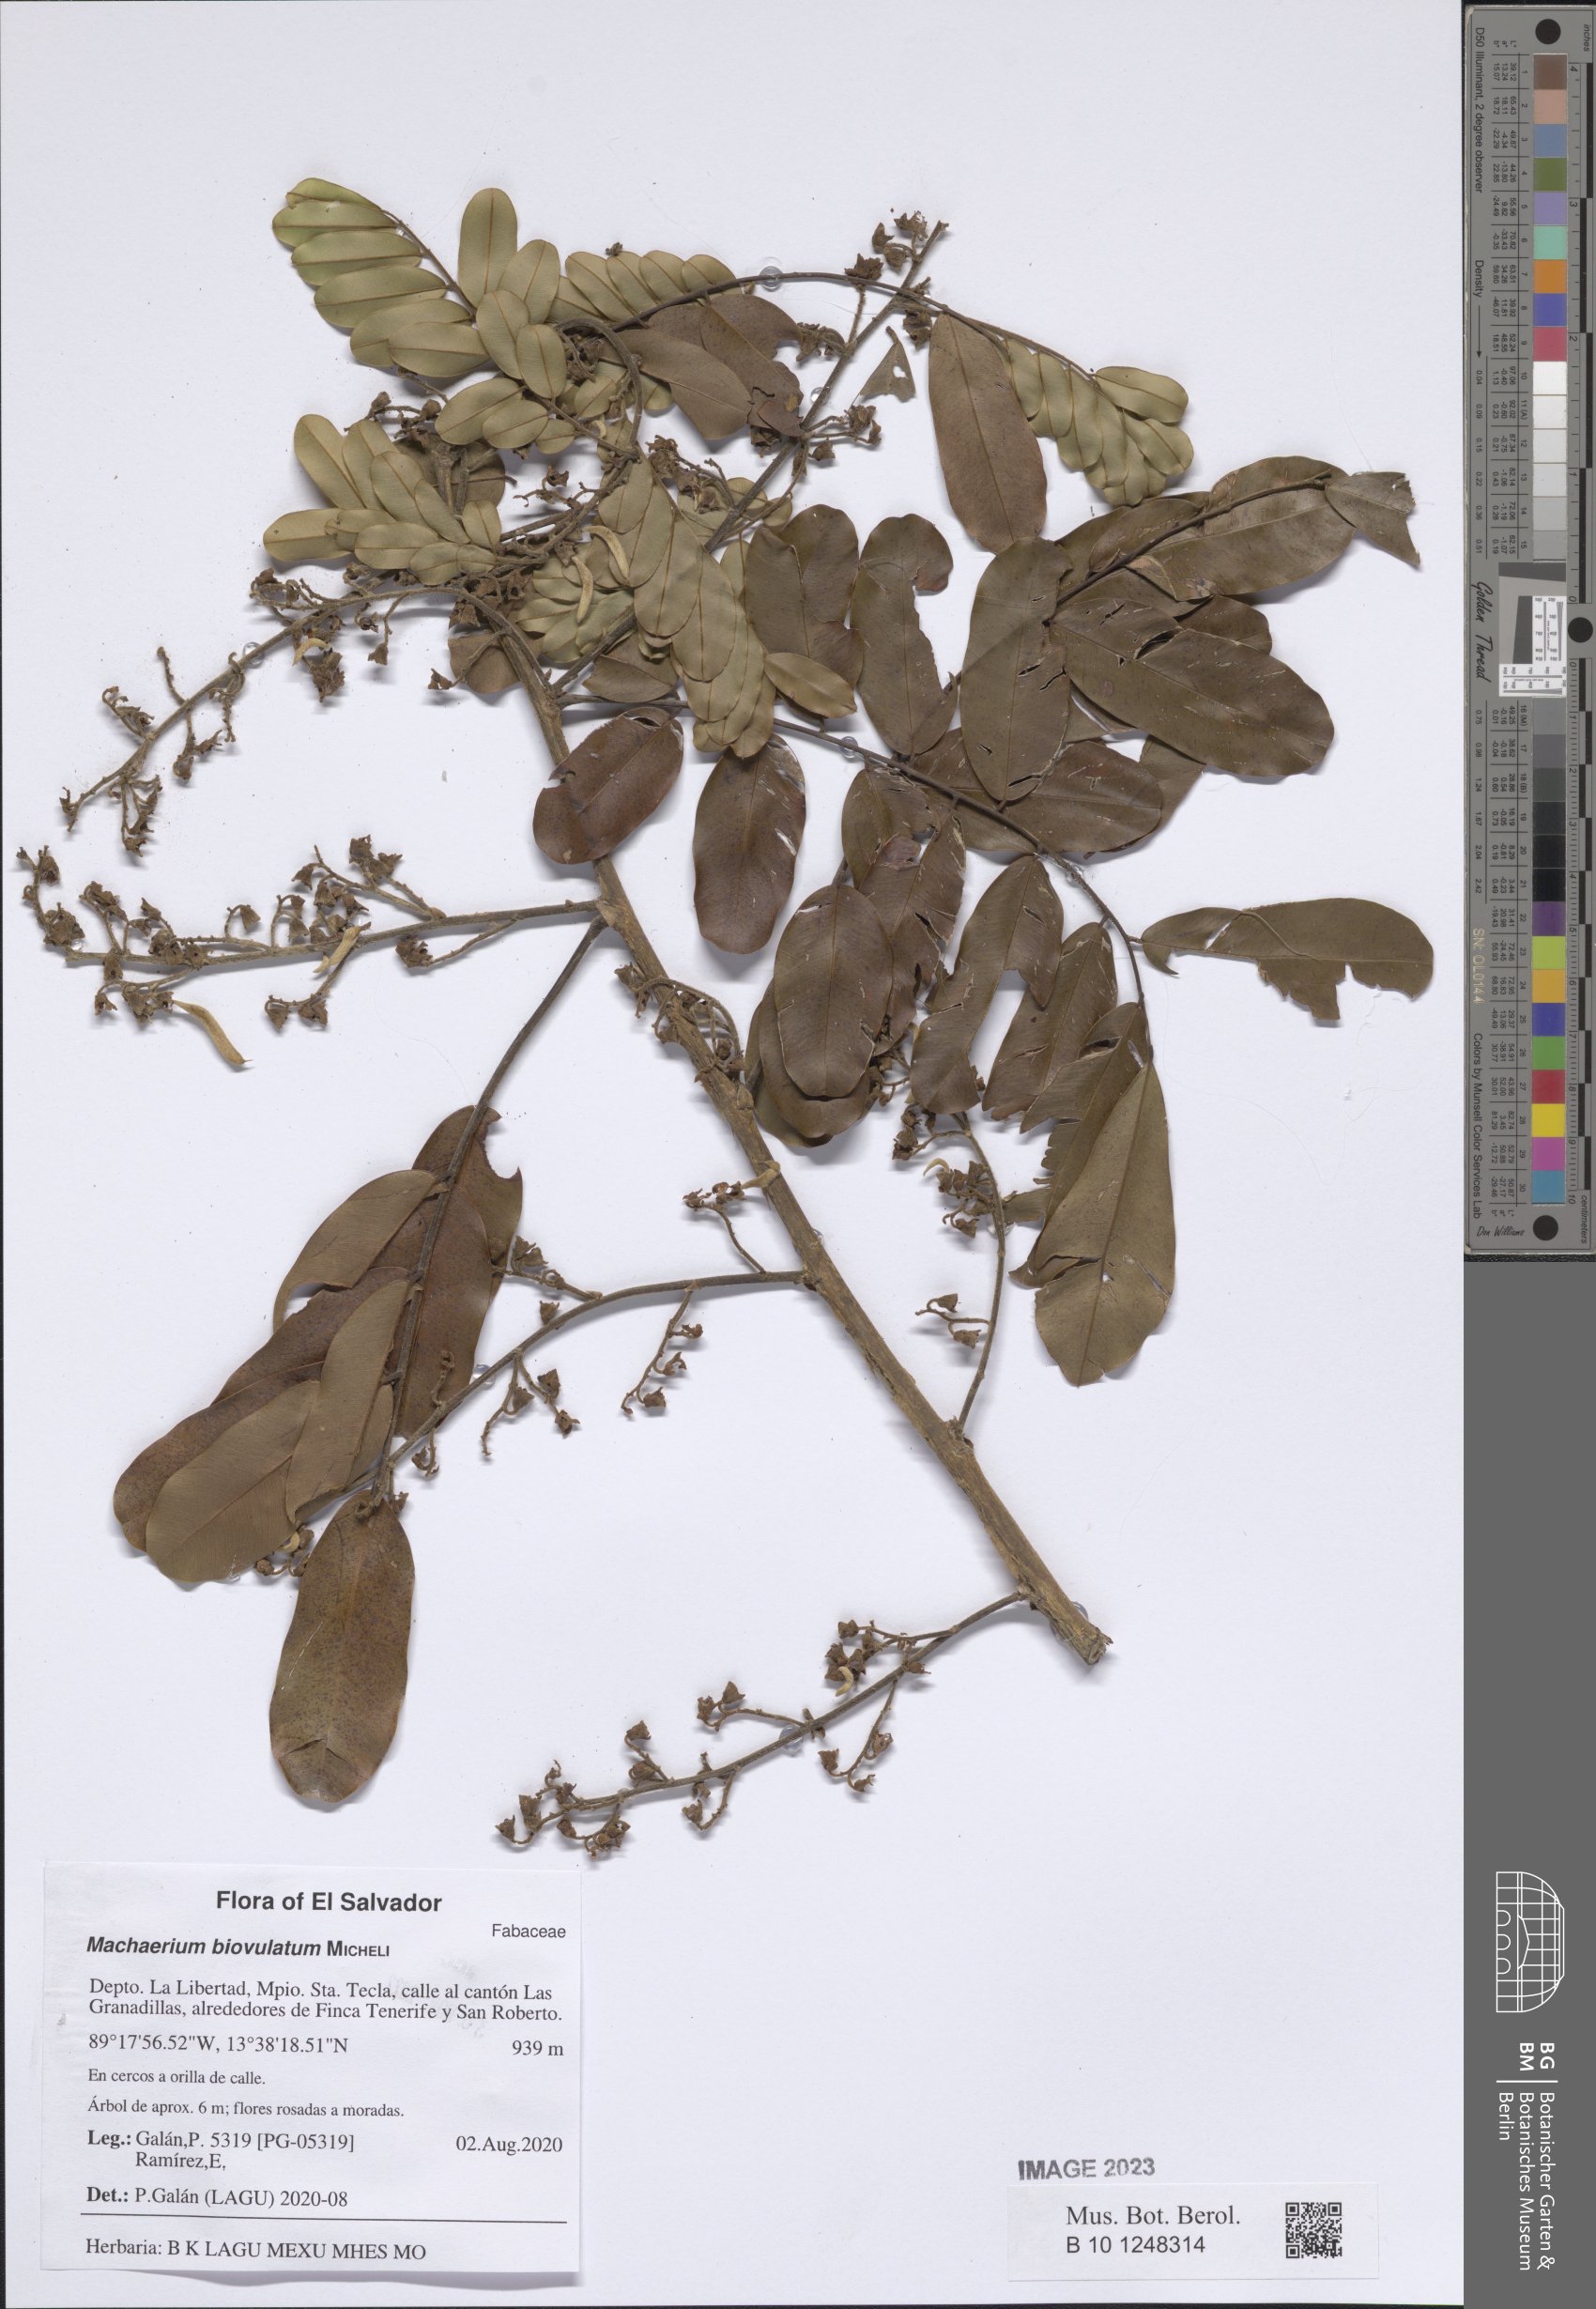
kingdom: Plantae
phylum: Tracheophyta
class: Magnoliopsida
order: Fabales
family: Fabaceae
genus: Machaerium
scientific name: Machaerium biovulatum
